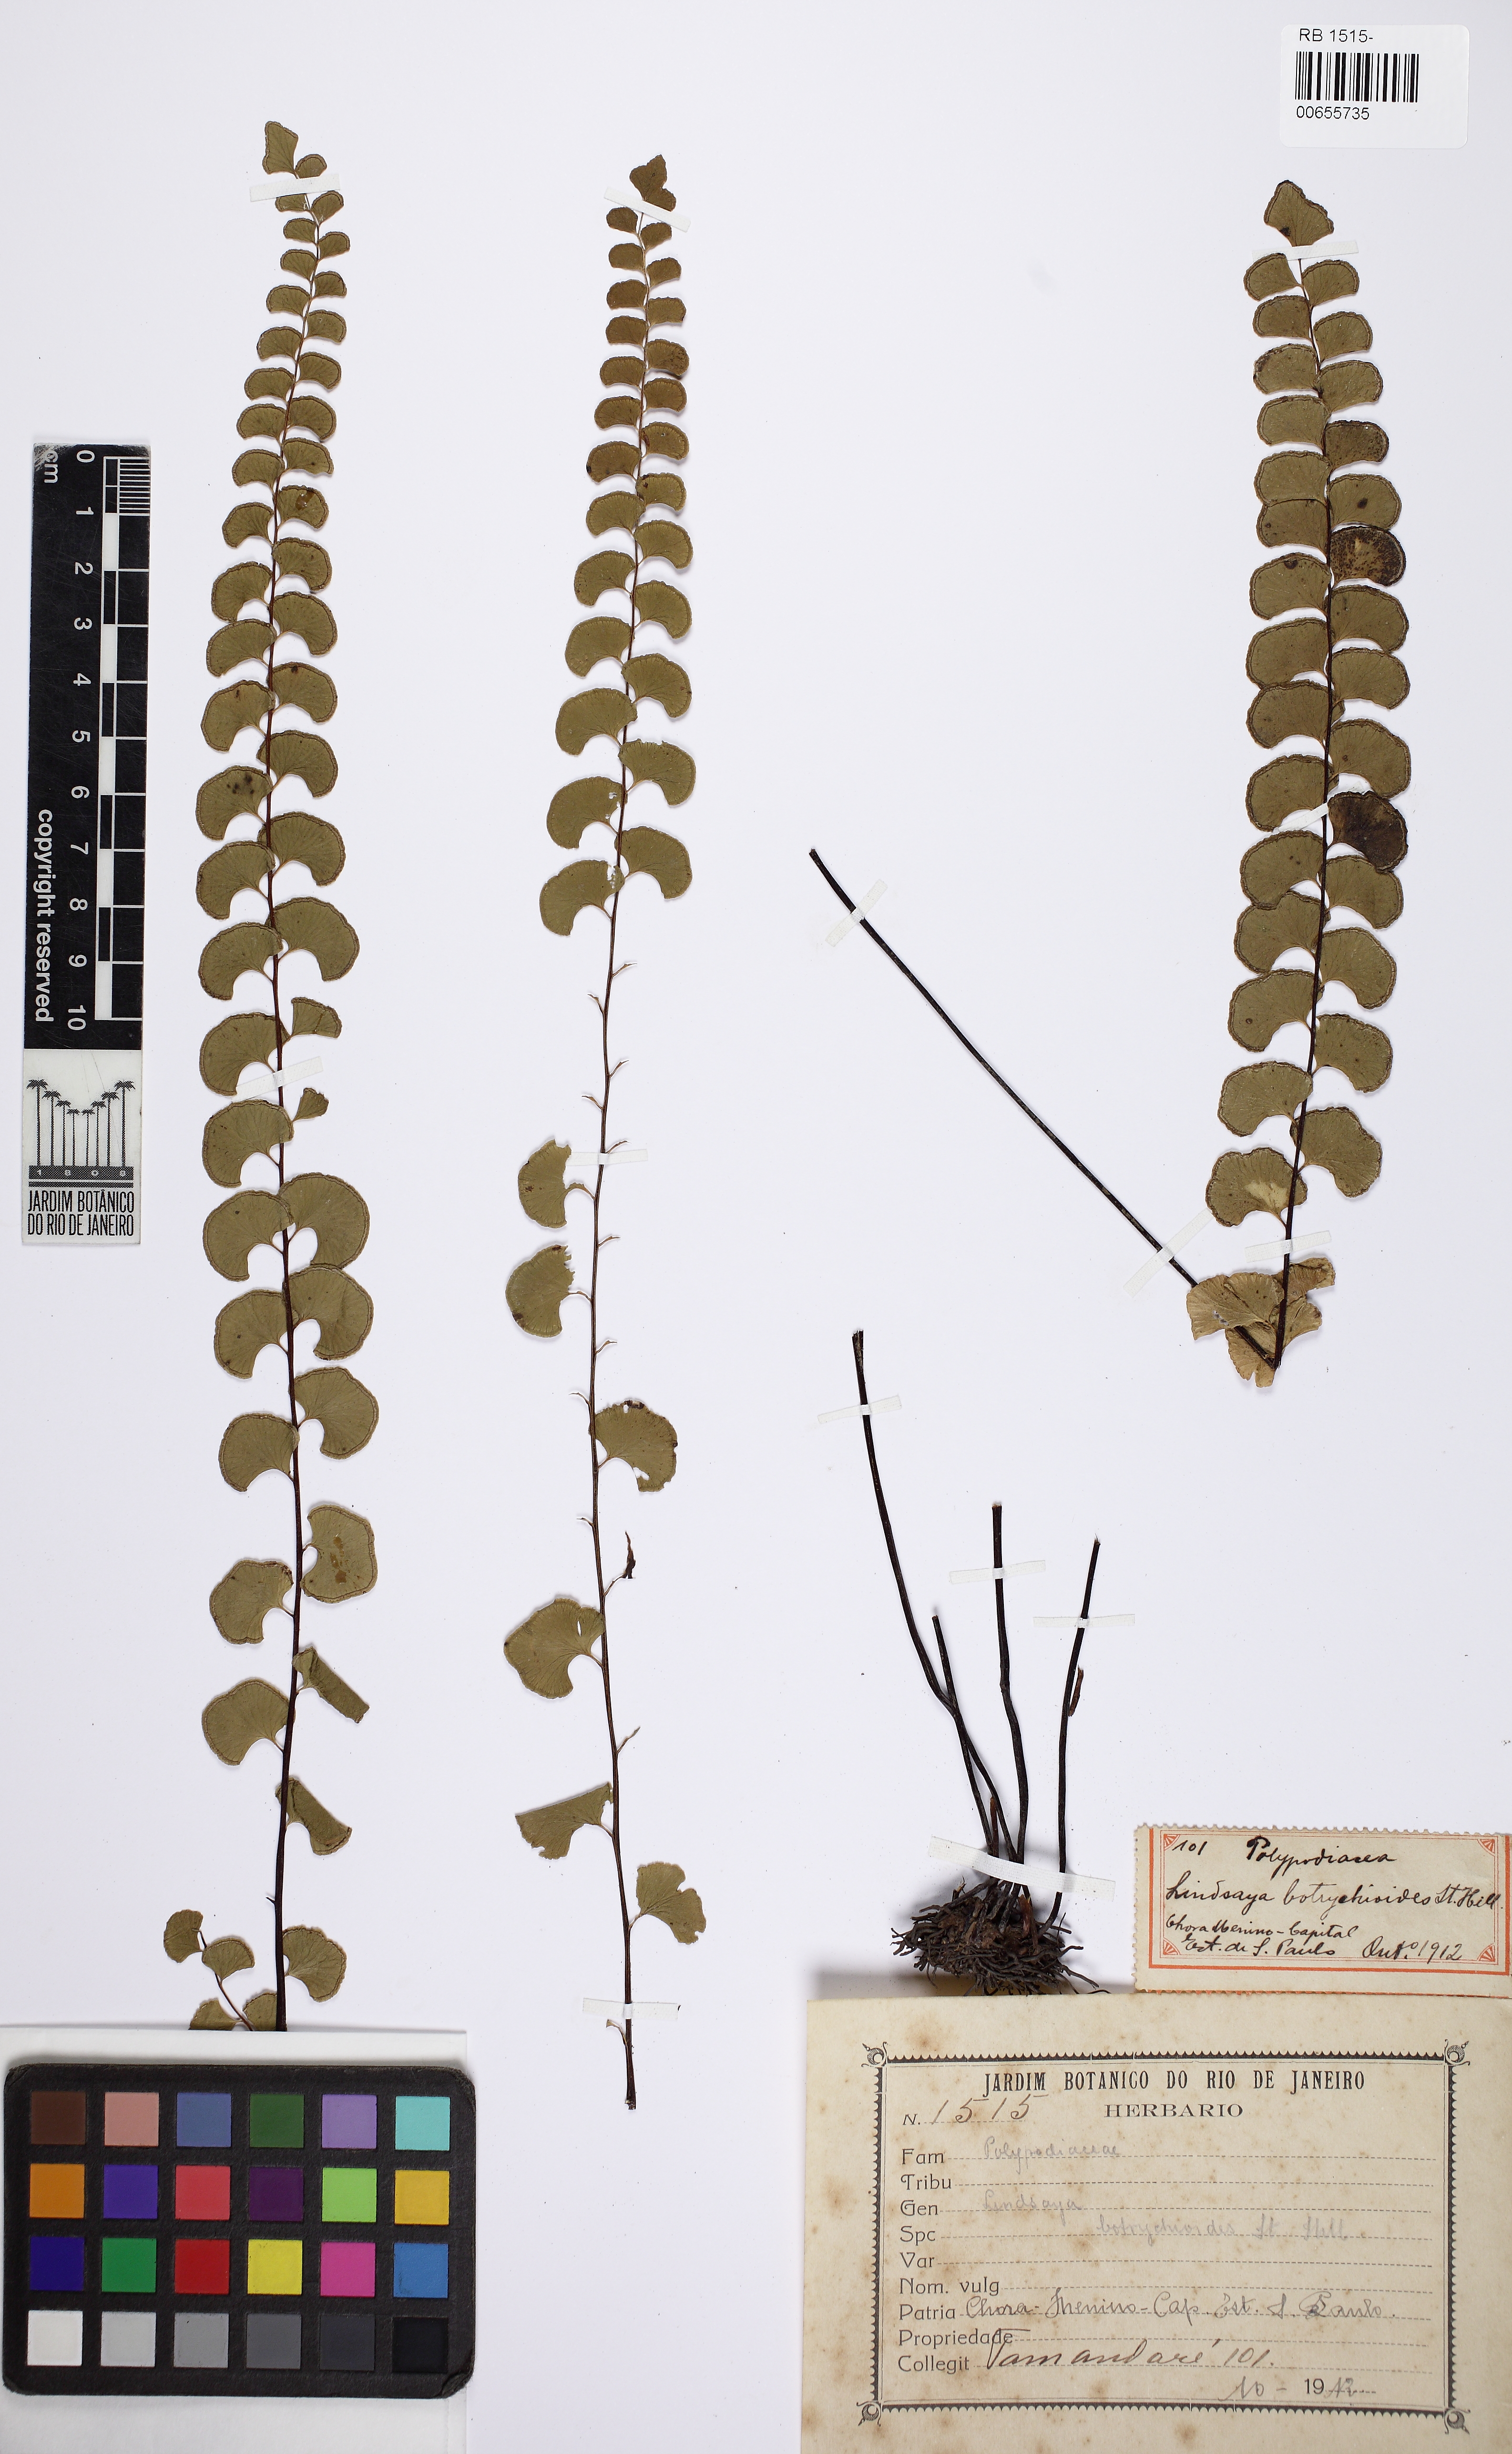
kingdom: Plantae
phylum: Tracheophyta
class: Polypodiopsida
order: Polypodiales
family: Lindsaeaceae
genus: Lindsaea
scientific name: Lindsaea botrychioides
